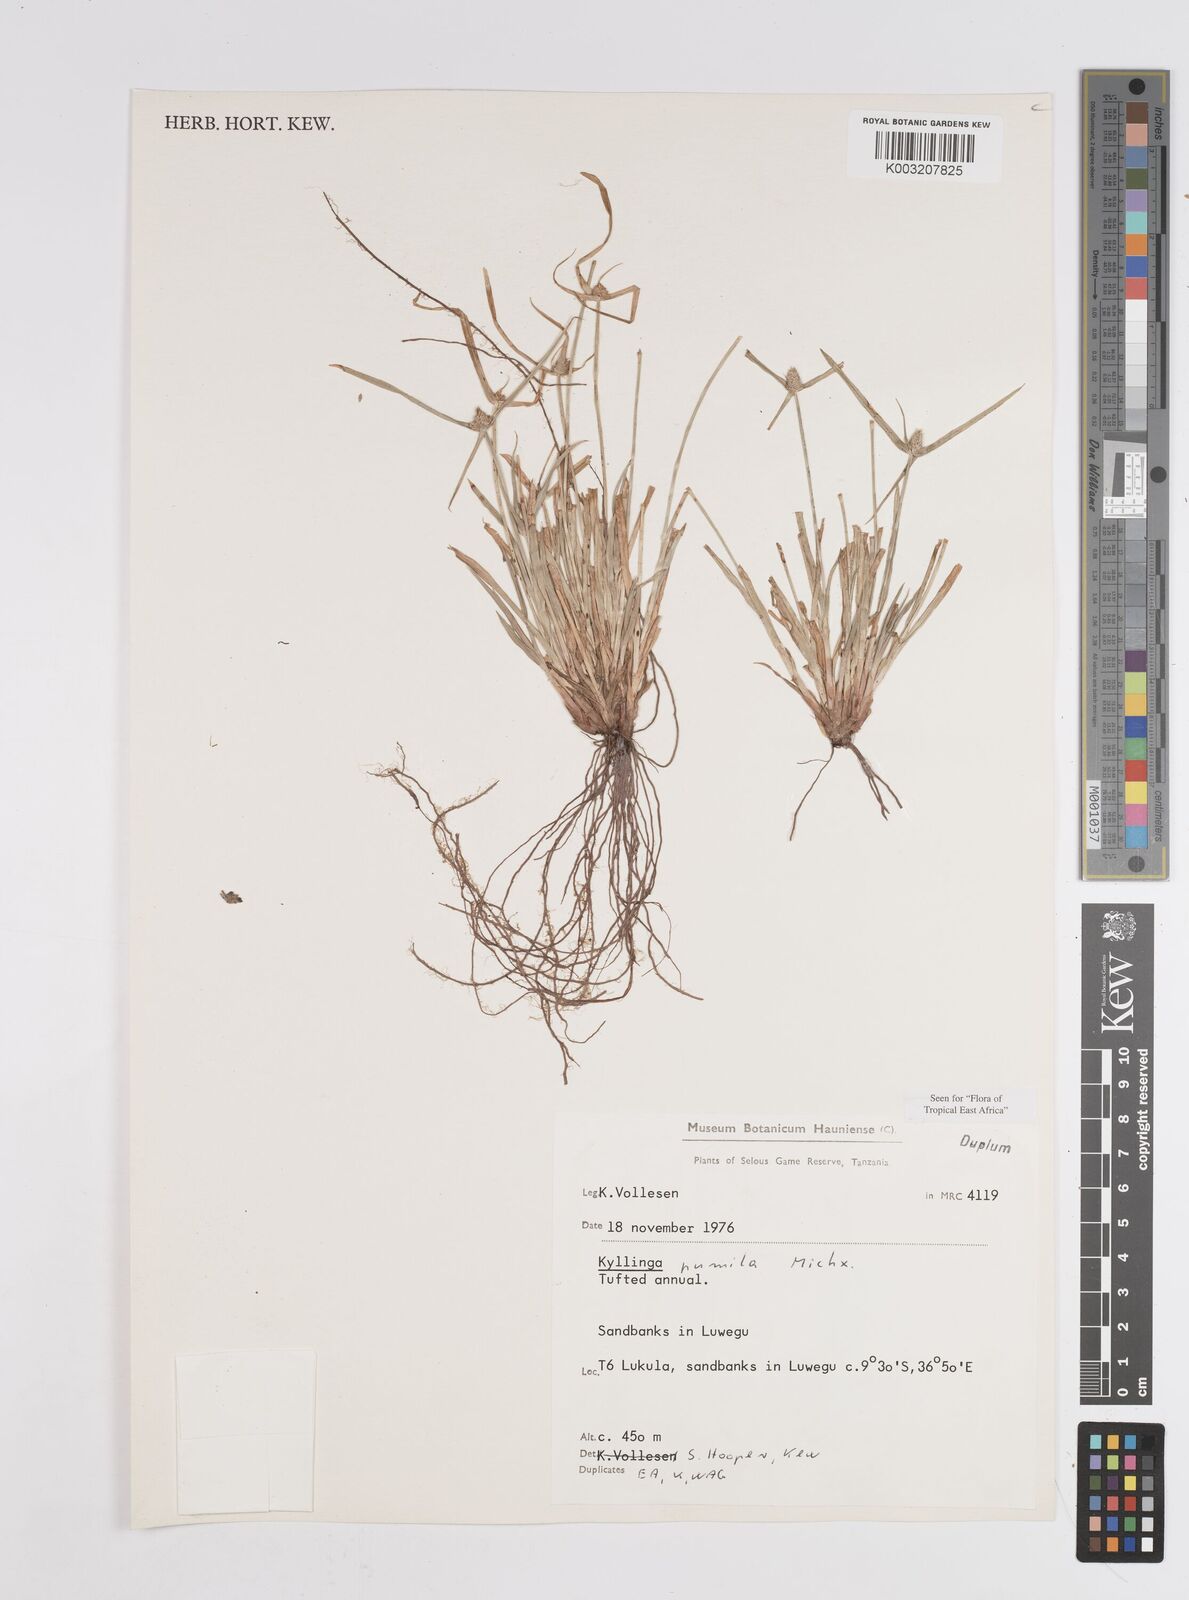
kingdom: Plantae
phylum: Tracheophyta
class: Liliopsida
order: Poales
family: Cyperaceae
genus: Cyperus
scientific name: Cyperus hortensis
